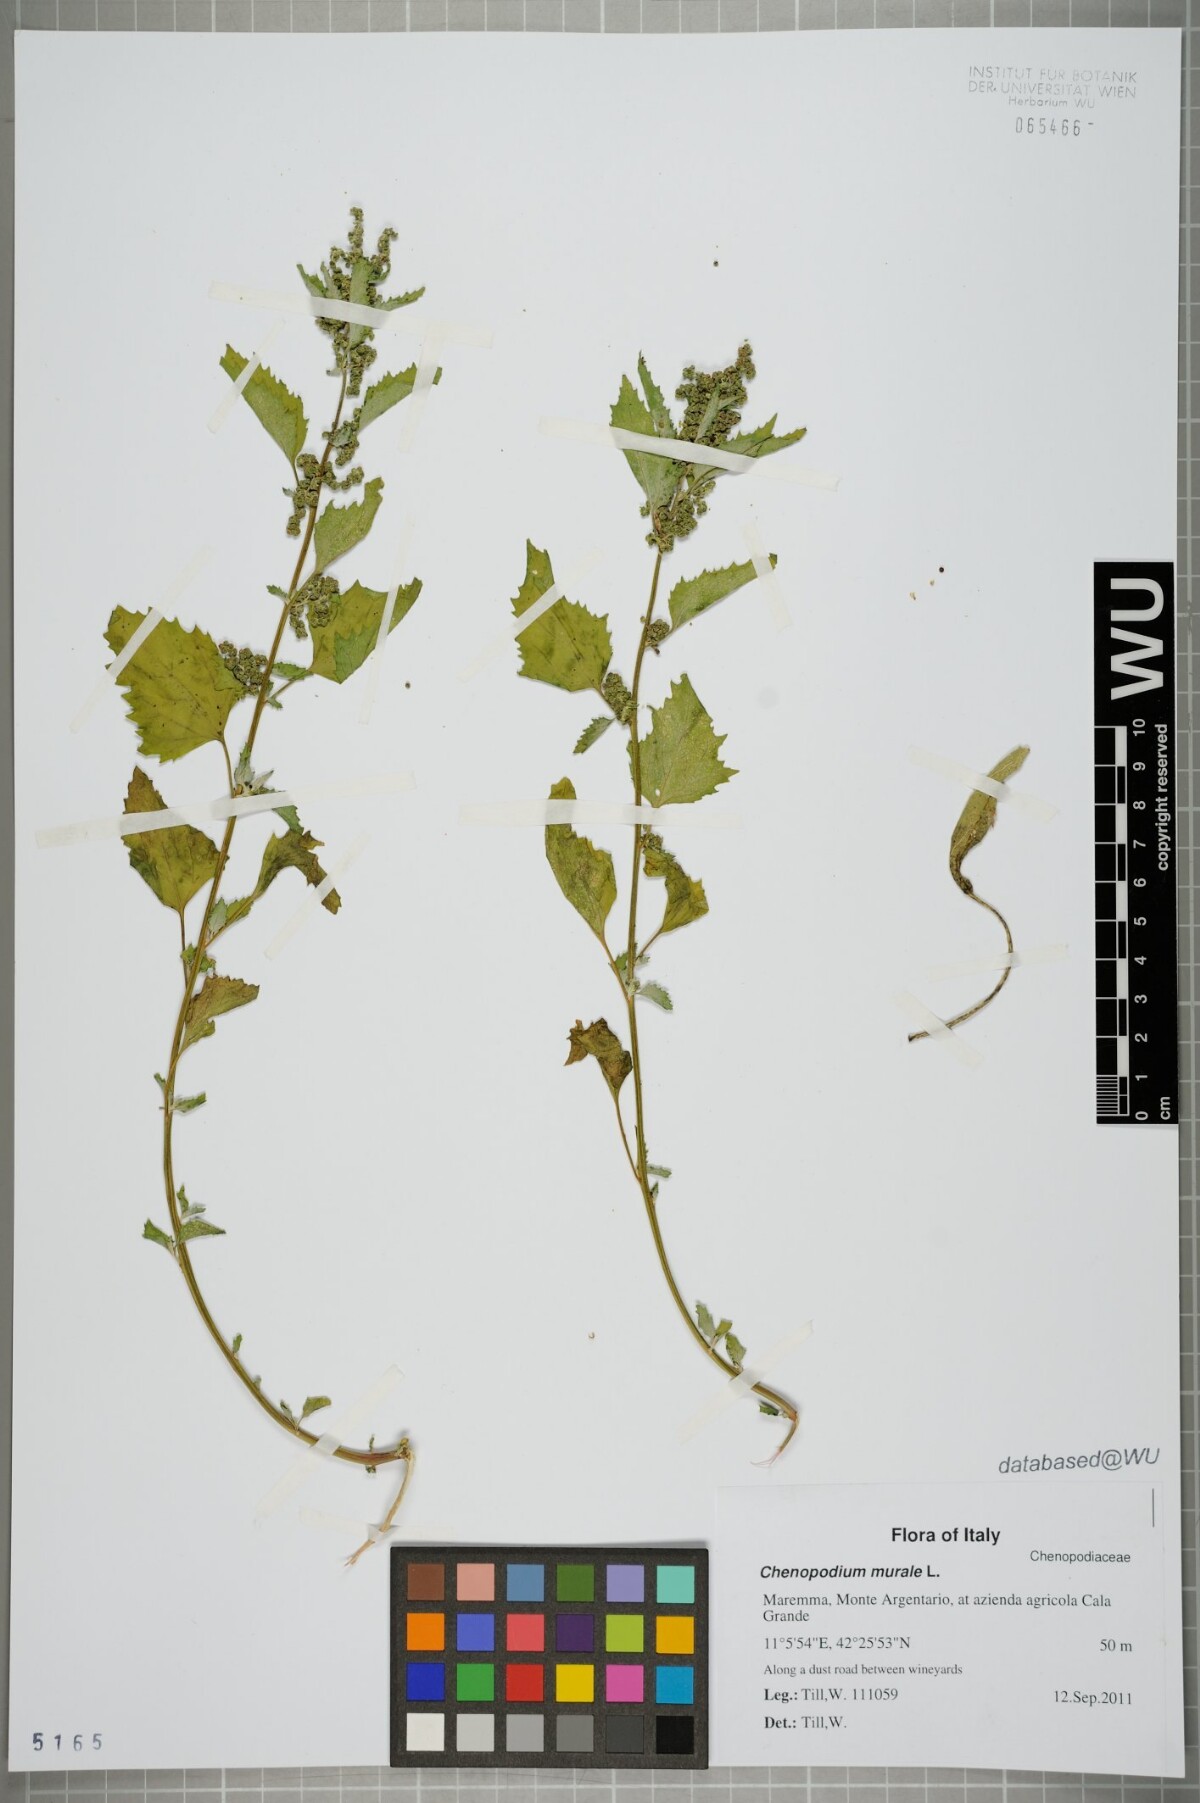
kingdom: Plantae
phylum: Tracheophyta
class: Magnoliopsida
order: Caryophyllales
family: Amaranthaceae
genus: Chenopodiastrum
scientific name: Chenopodiastrum murale
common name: Sowbane
